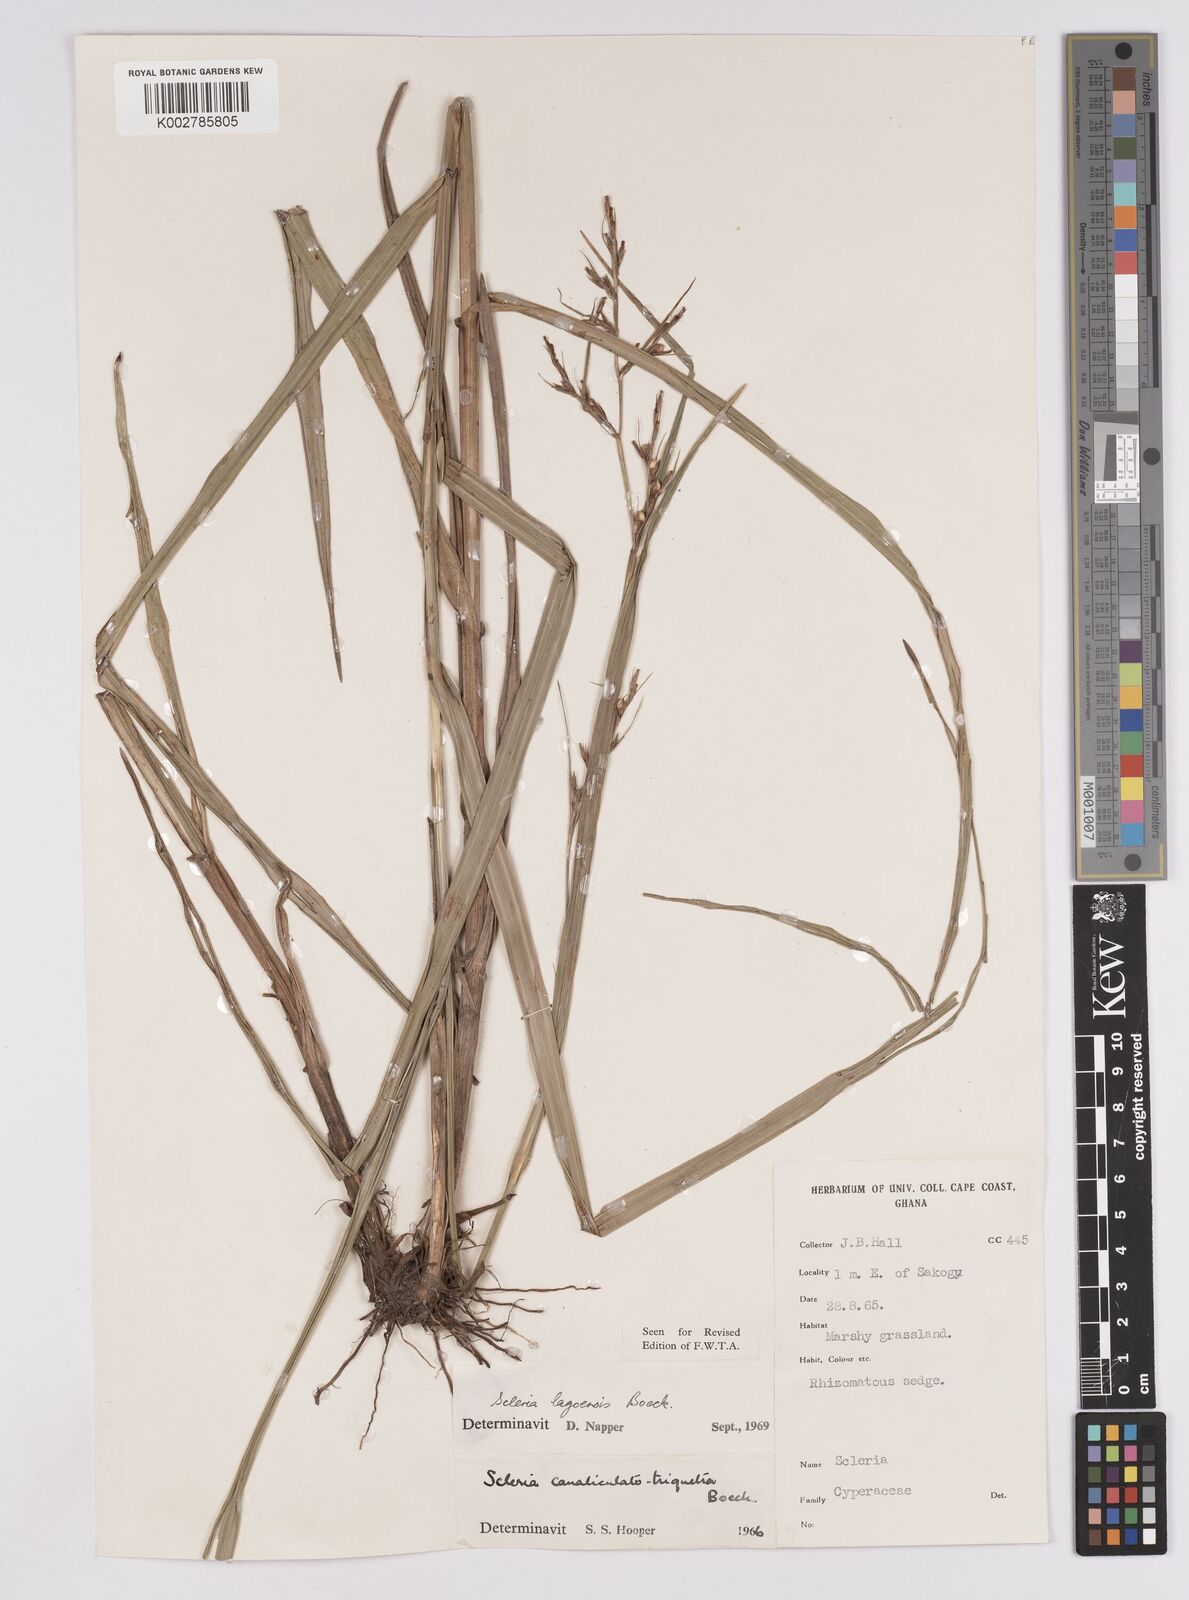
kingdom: Plantae
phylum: Tracheophyta
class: Liliopsida
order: Poales
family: Cyperaceae
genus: Scleria
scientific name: Scleria lagoensis
